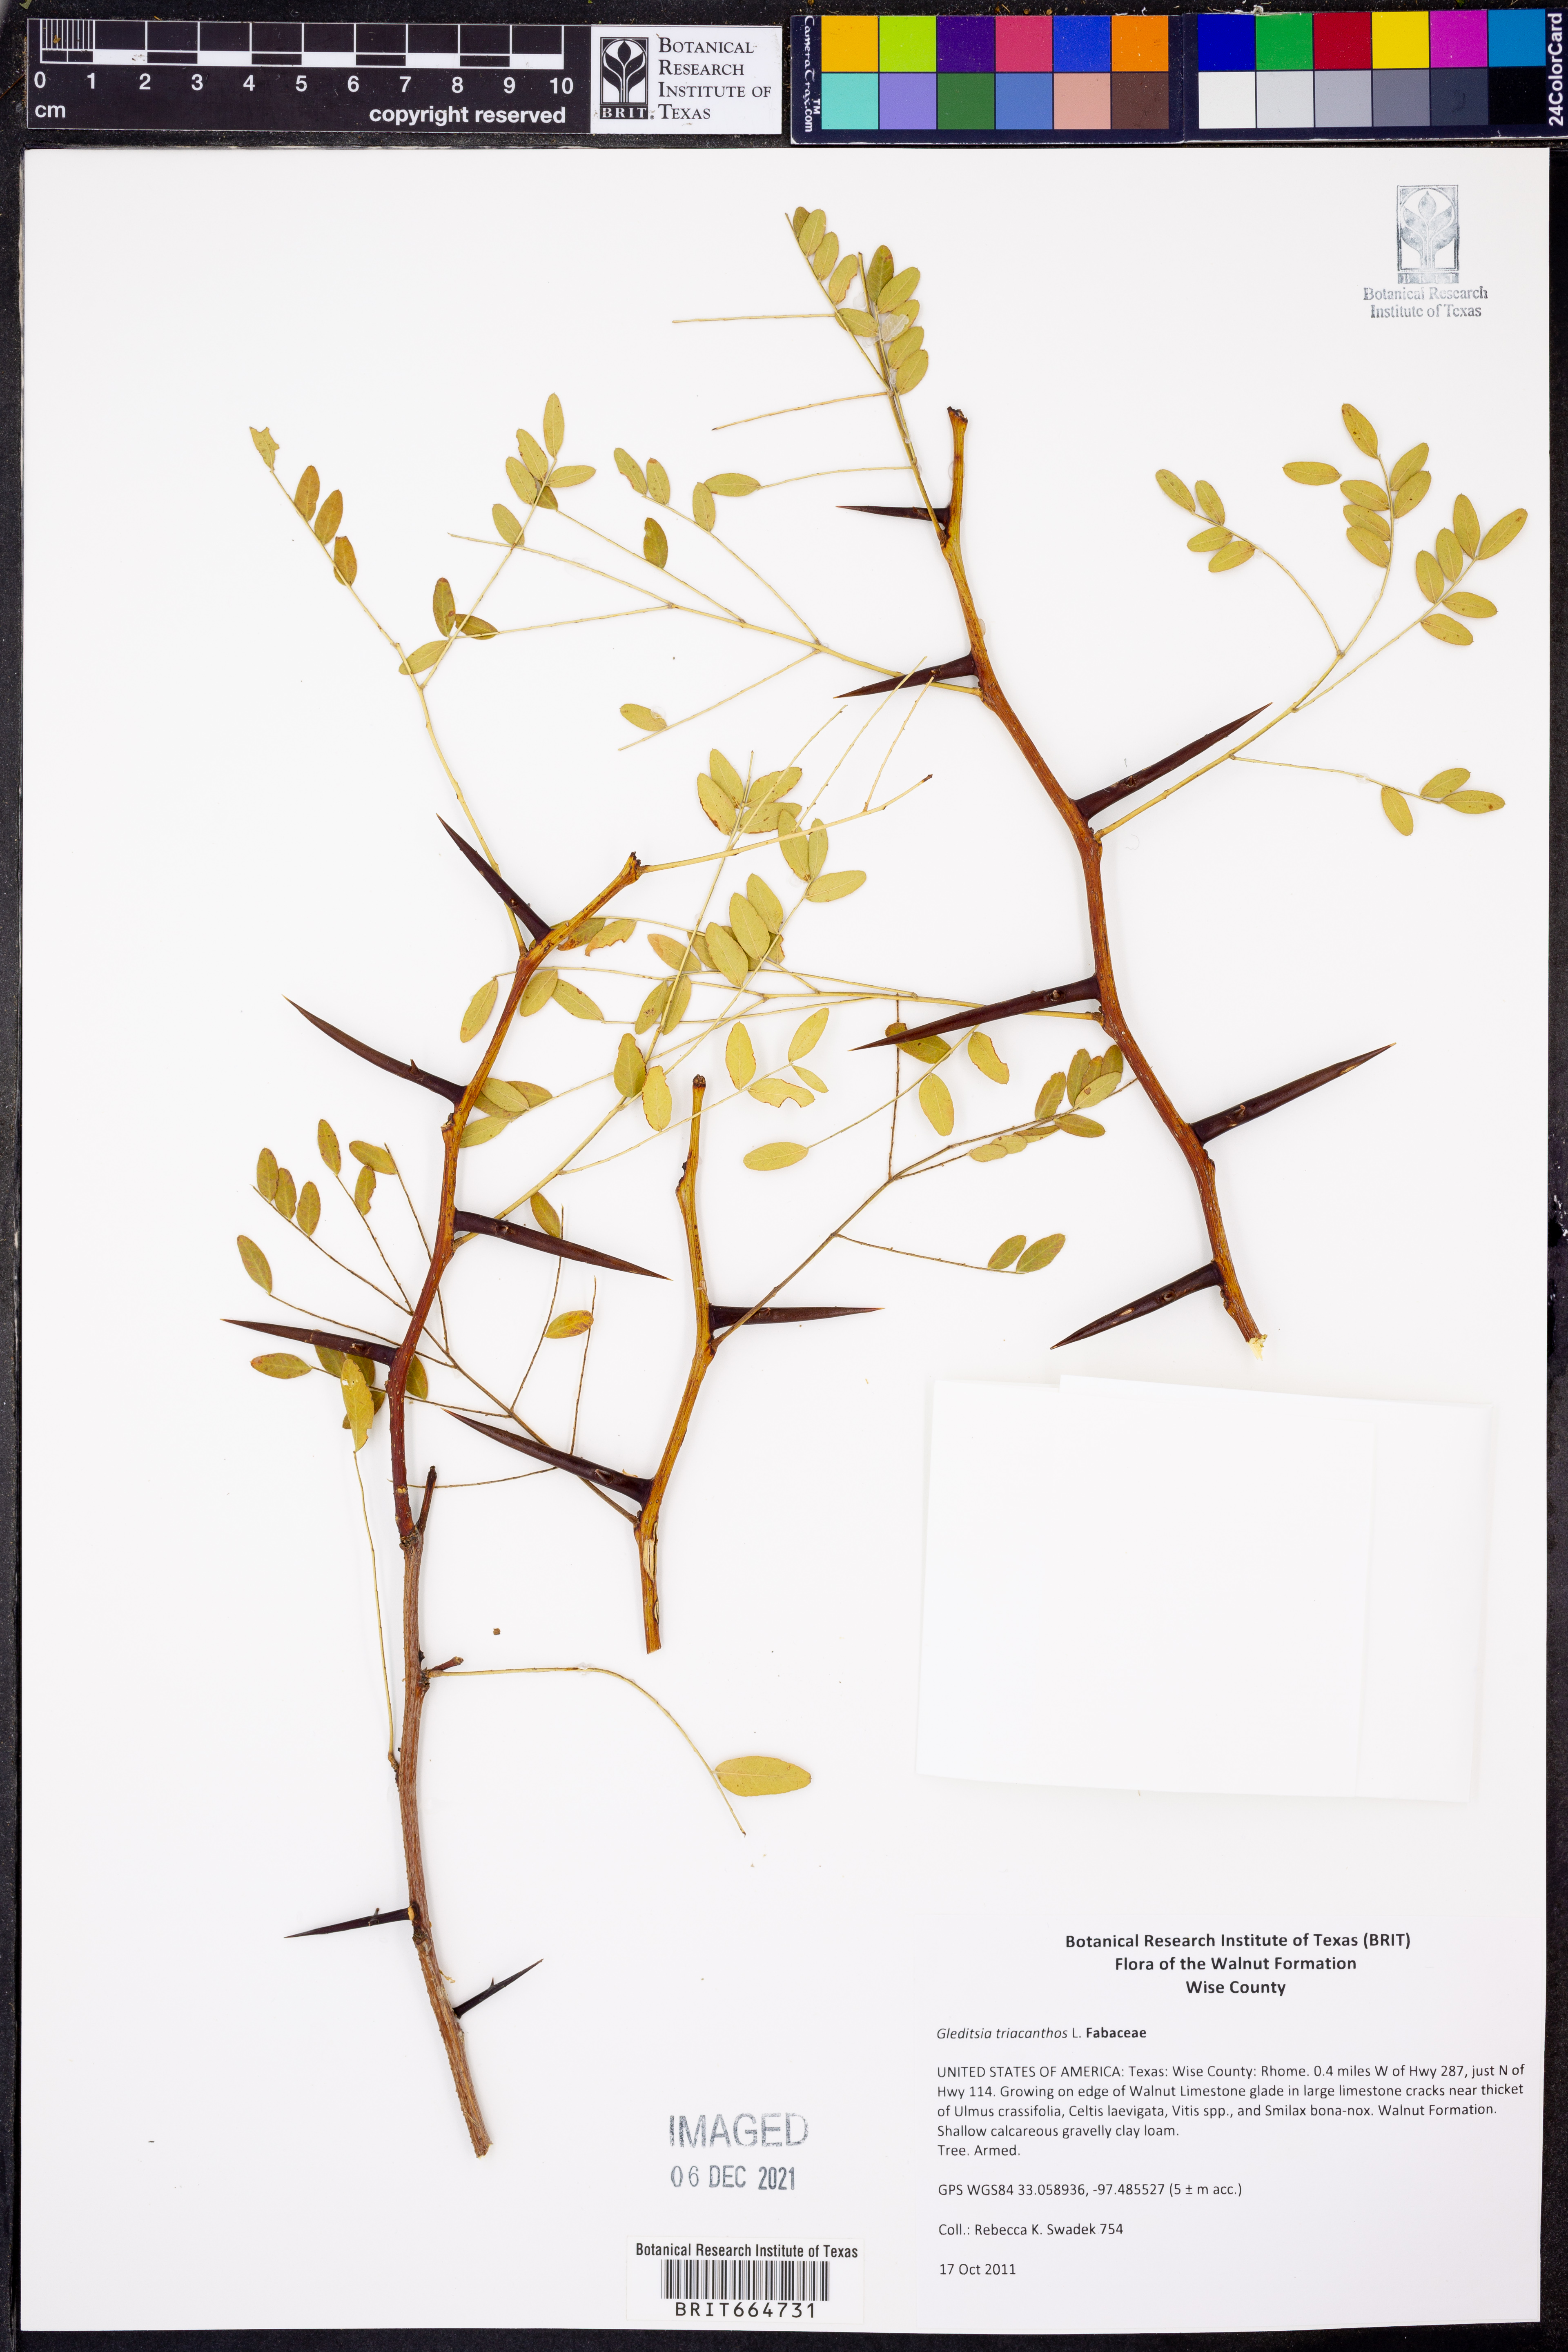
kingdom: Plantae
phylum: Tracheophyta
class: Magnoliopsida
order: Fabales
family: Fabaceae
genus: Gleditsia
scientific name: Gleditsia triacanthos
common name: Common honeylocust
